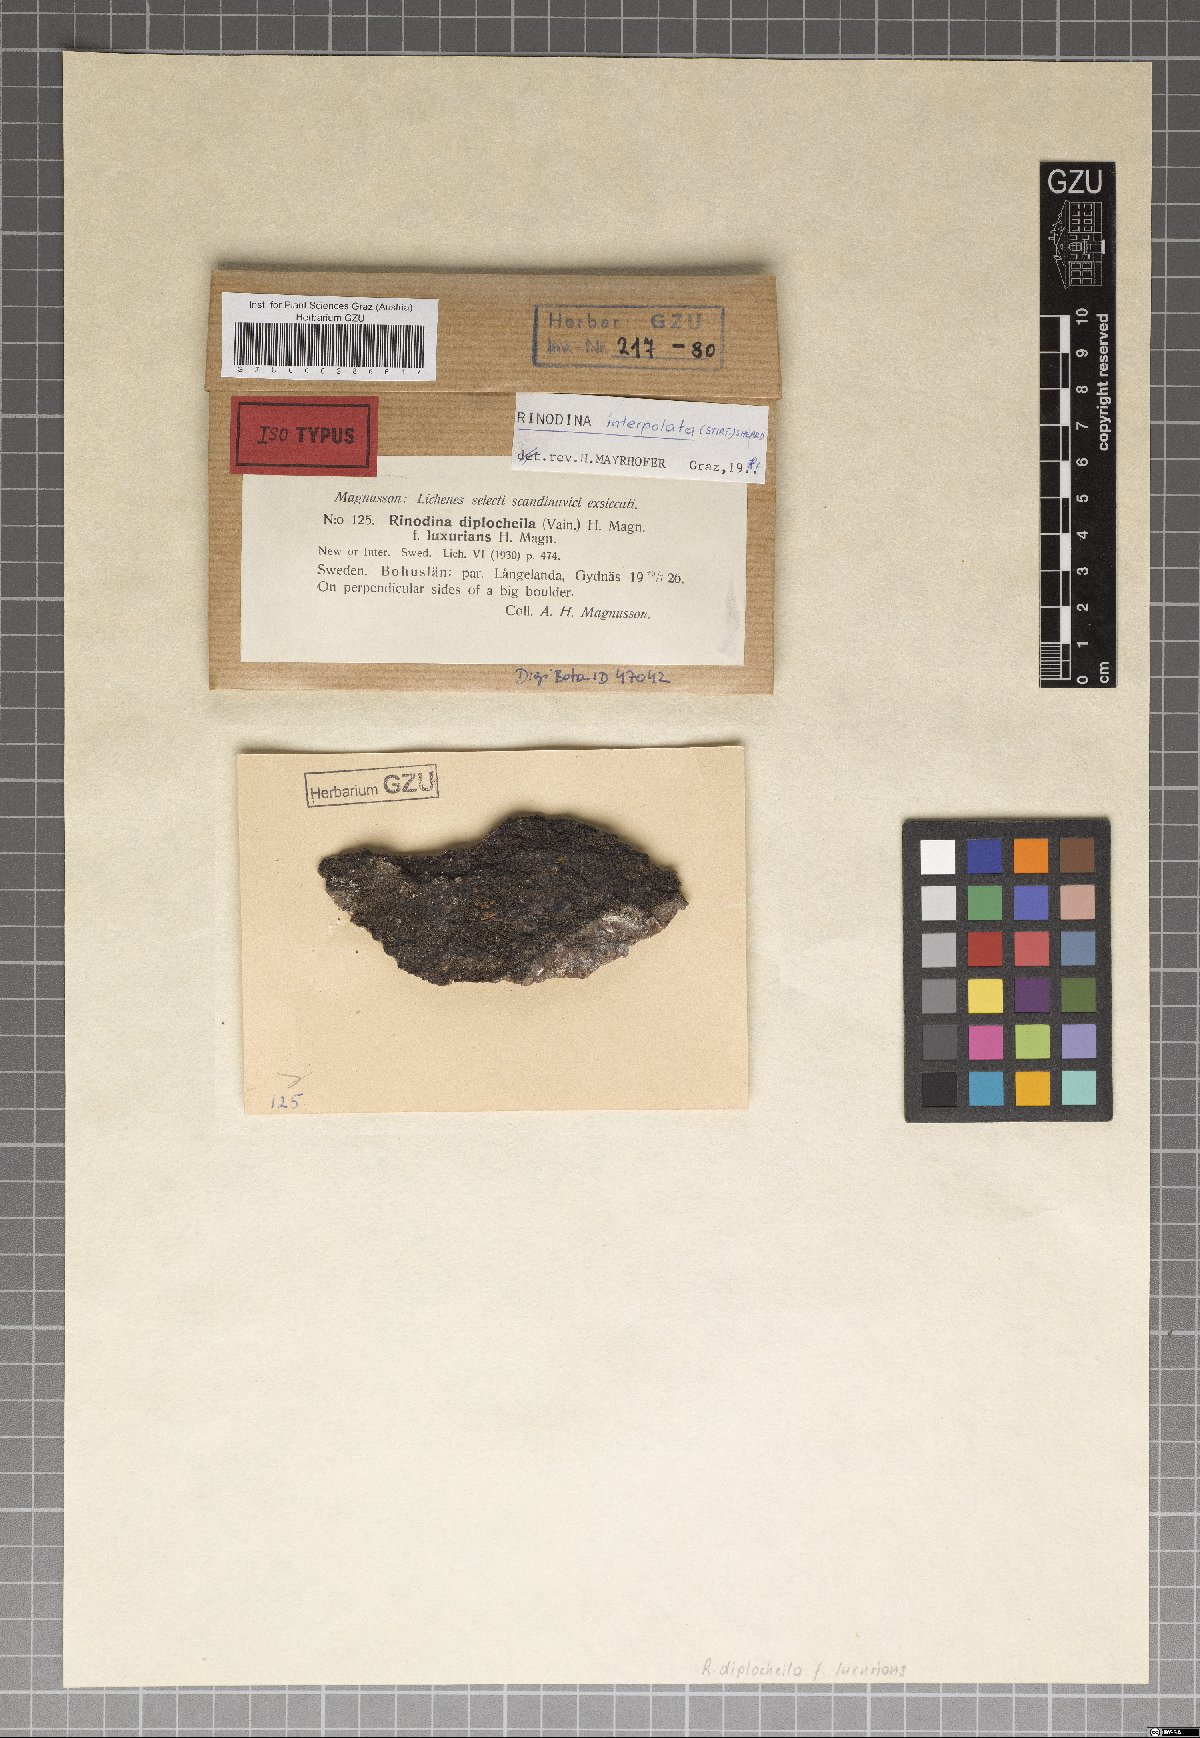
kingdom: Fungi
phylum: Ascomycota
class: Lecanoromycetes
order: Caliciales
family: Physciaceae
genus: Rinodina
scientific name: Rinodina interpolata
